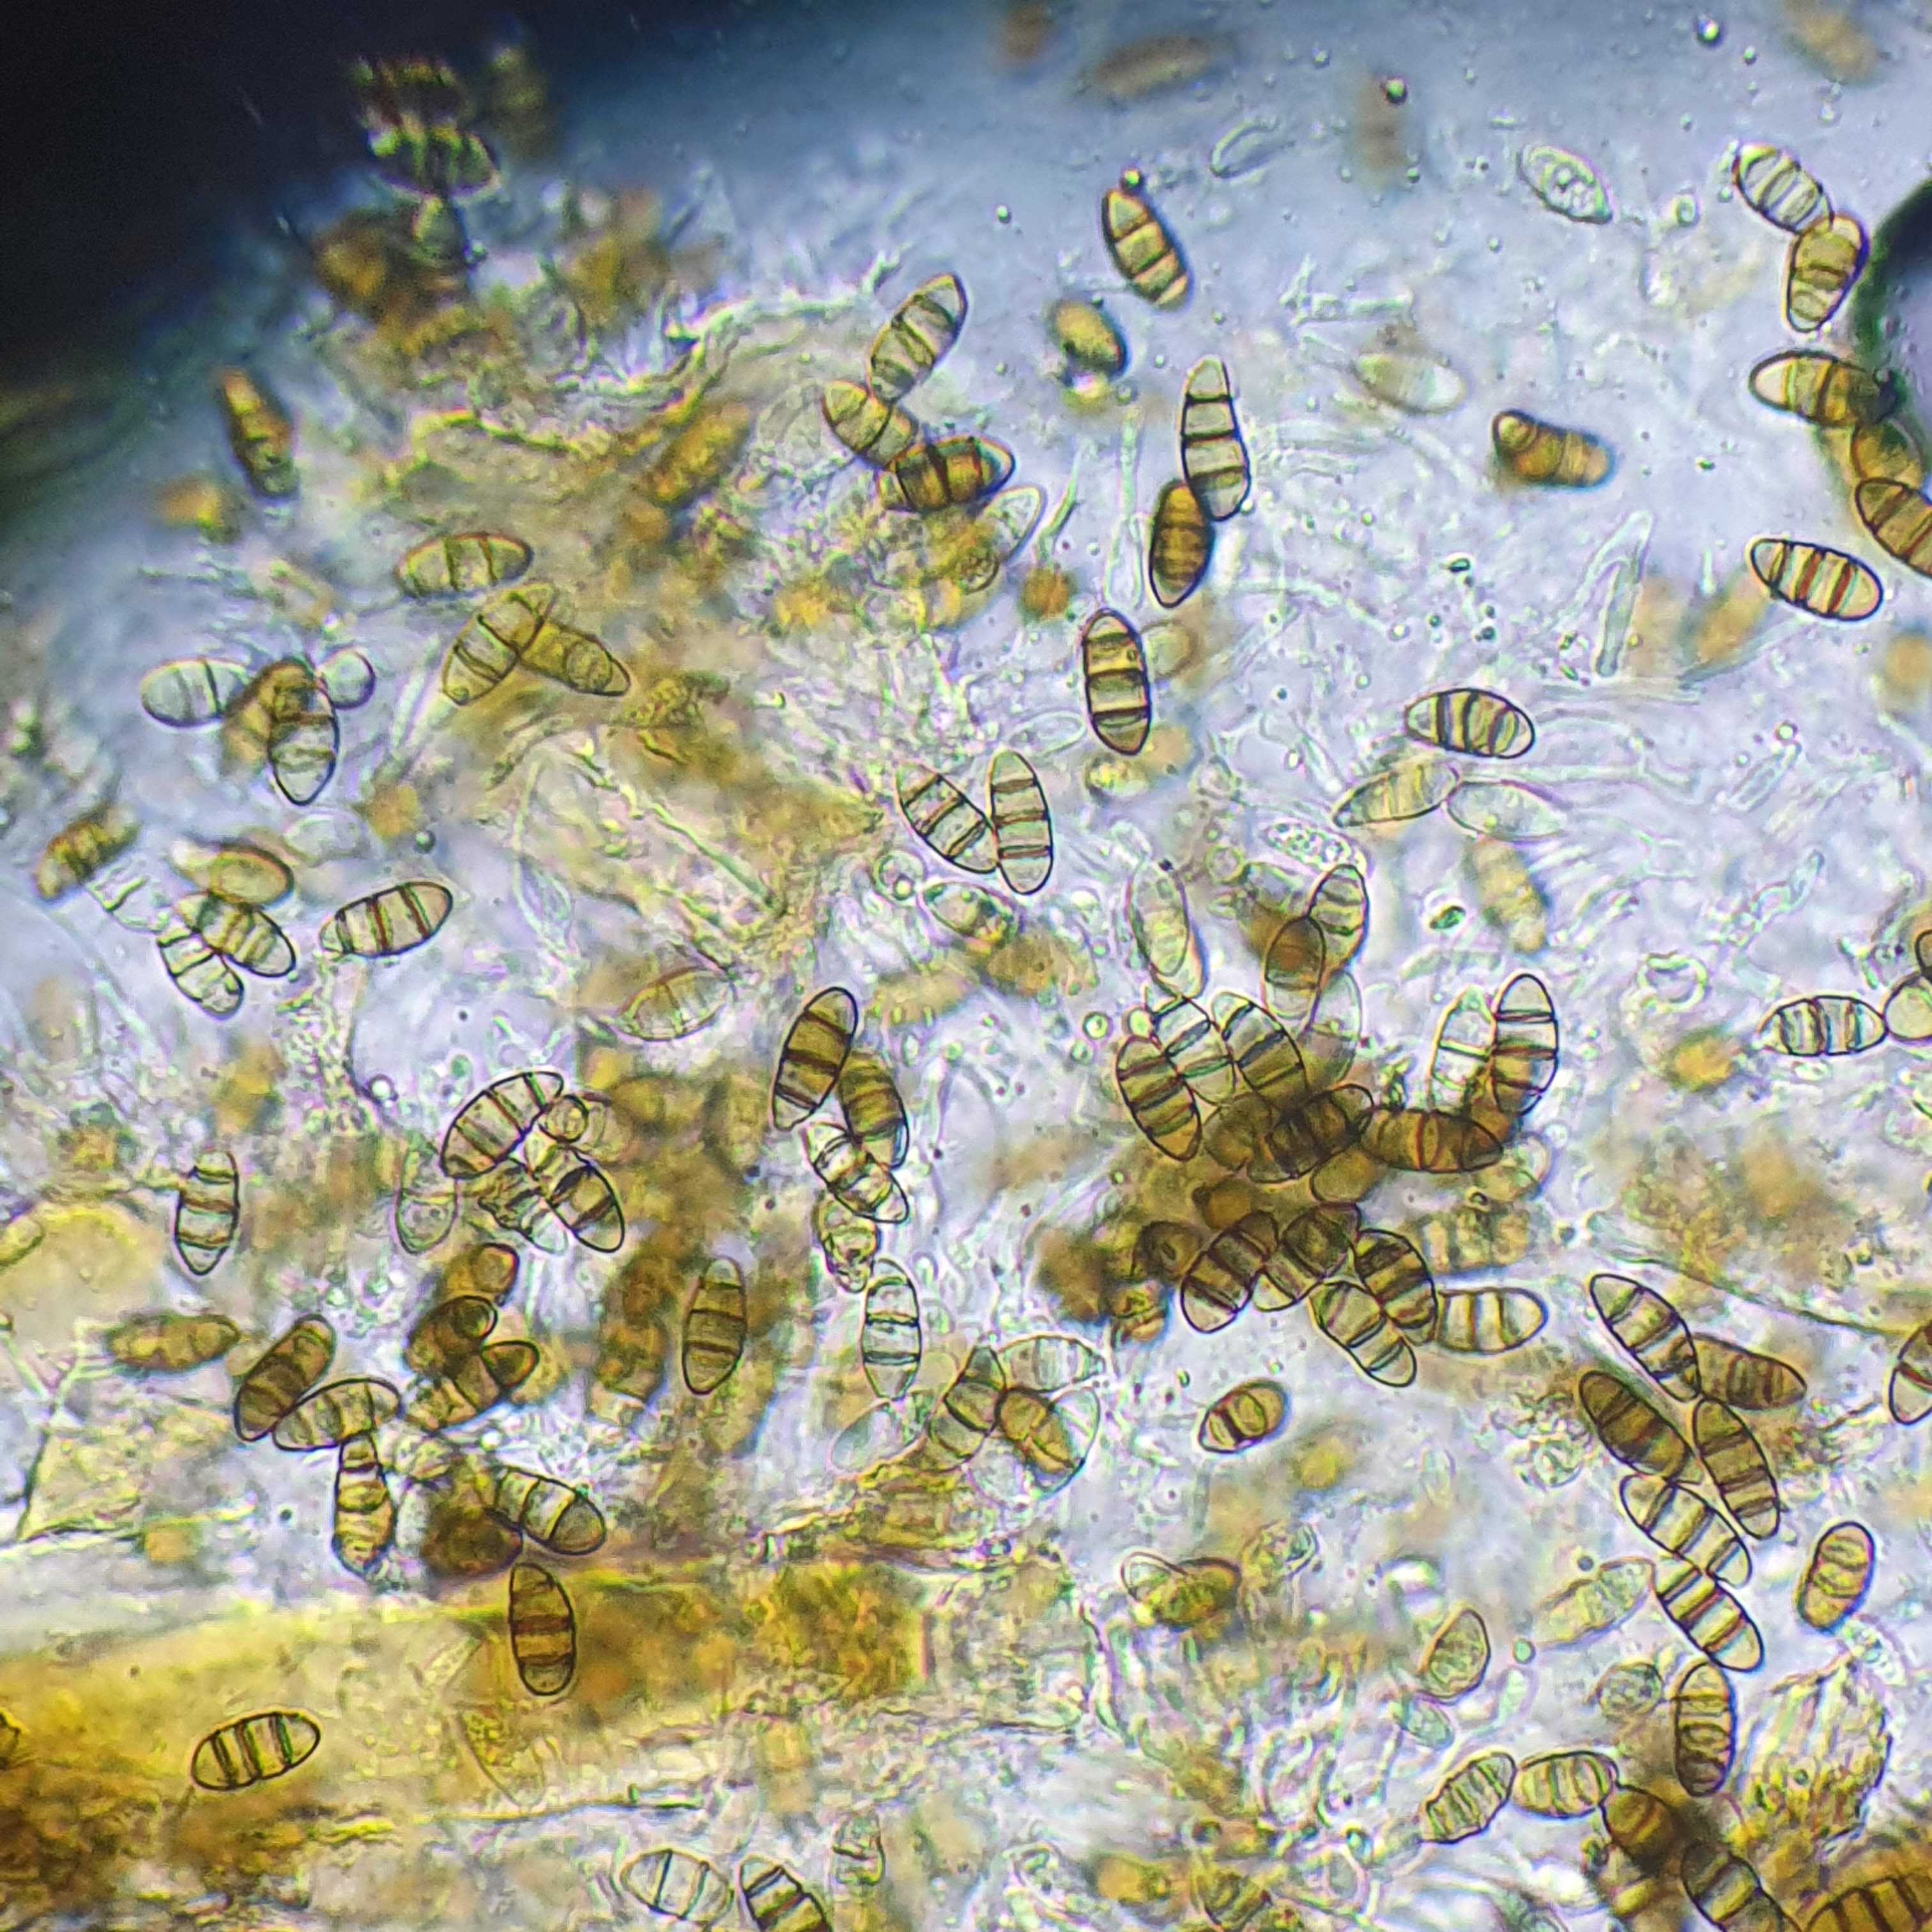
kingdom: Fungi
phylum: Ascomycota
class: Sordariomycetes
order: Amphisphaeriales
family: Sporocadaceae
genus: Discostroma
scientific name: Discostroma corticola
